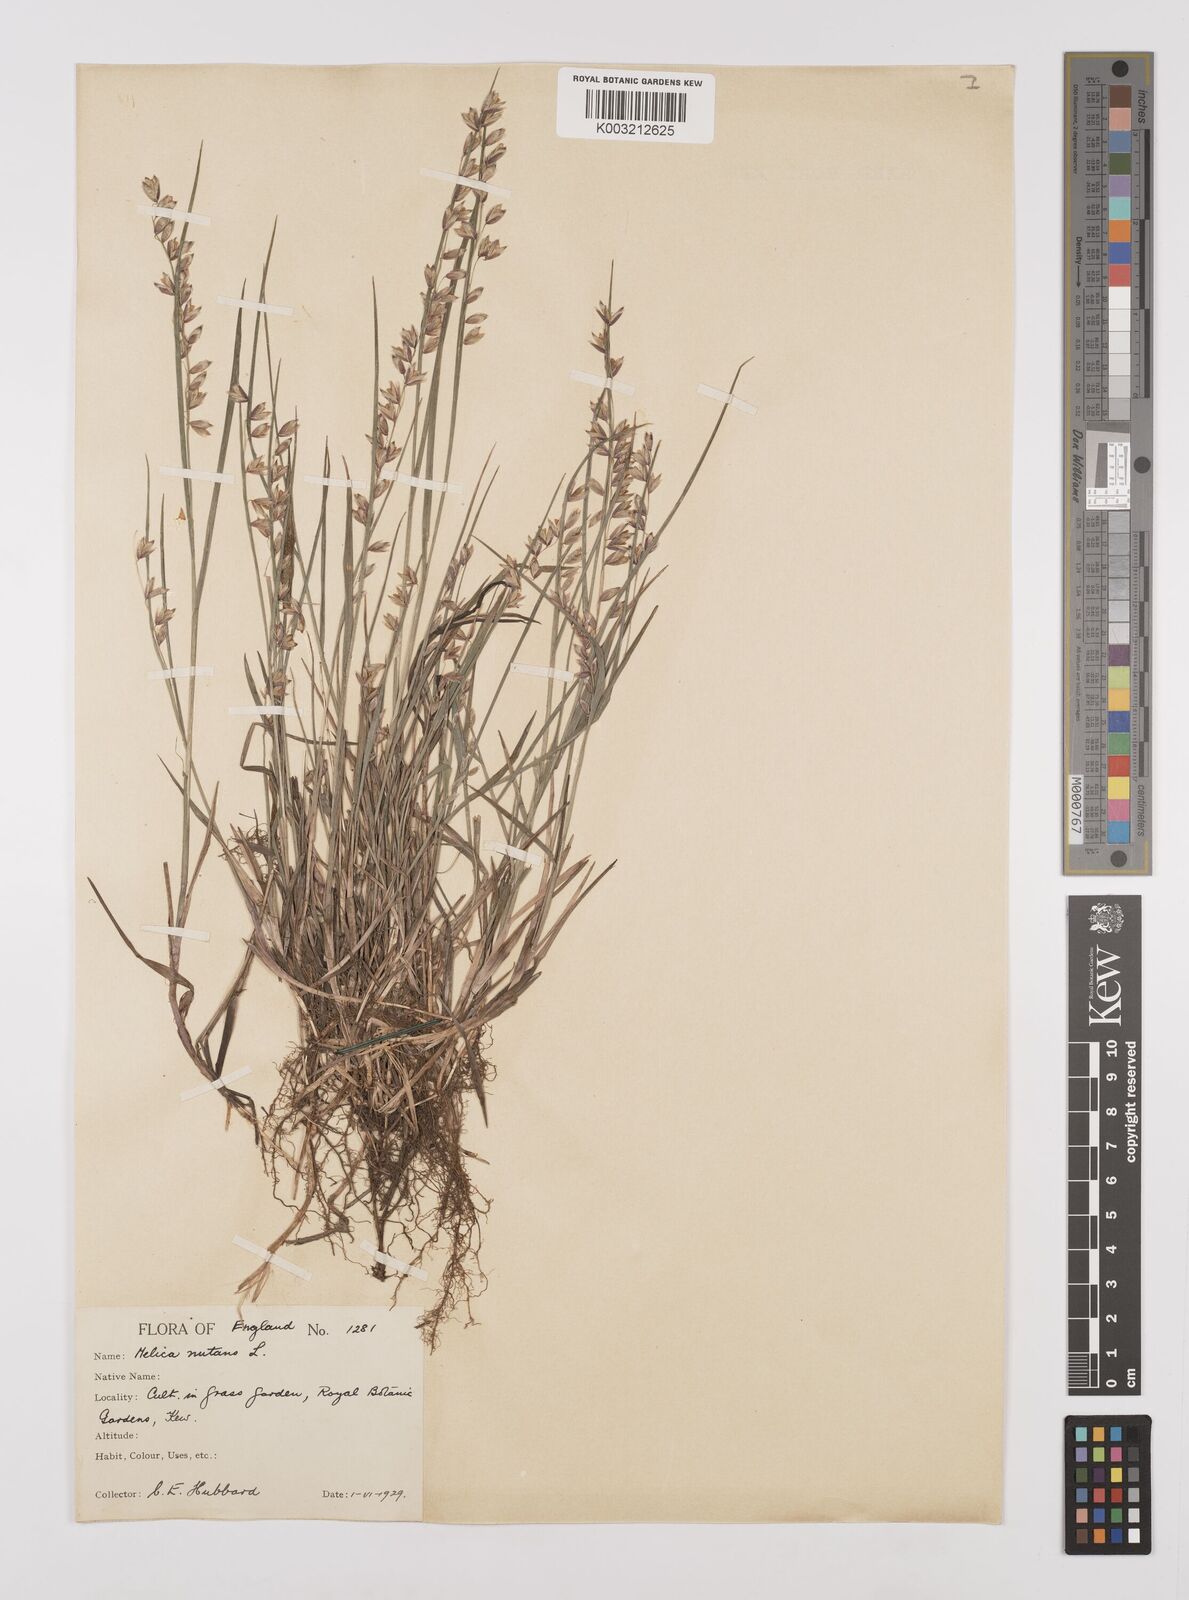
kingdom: Plantae
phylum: Tracheophyta
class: Liliopsida
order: Poales
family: Poaceae
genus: Melica
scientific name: Melica
